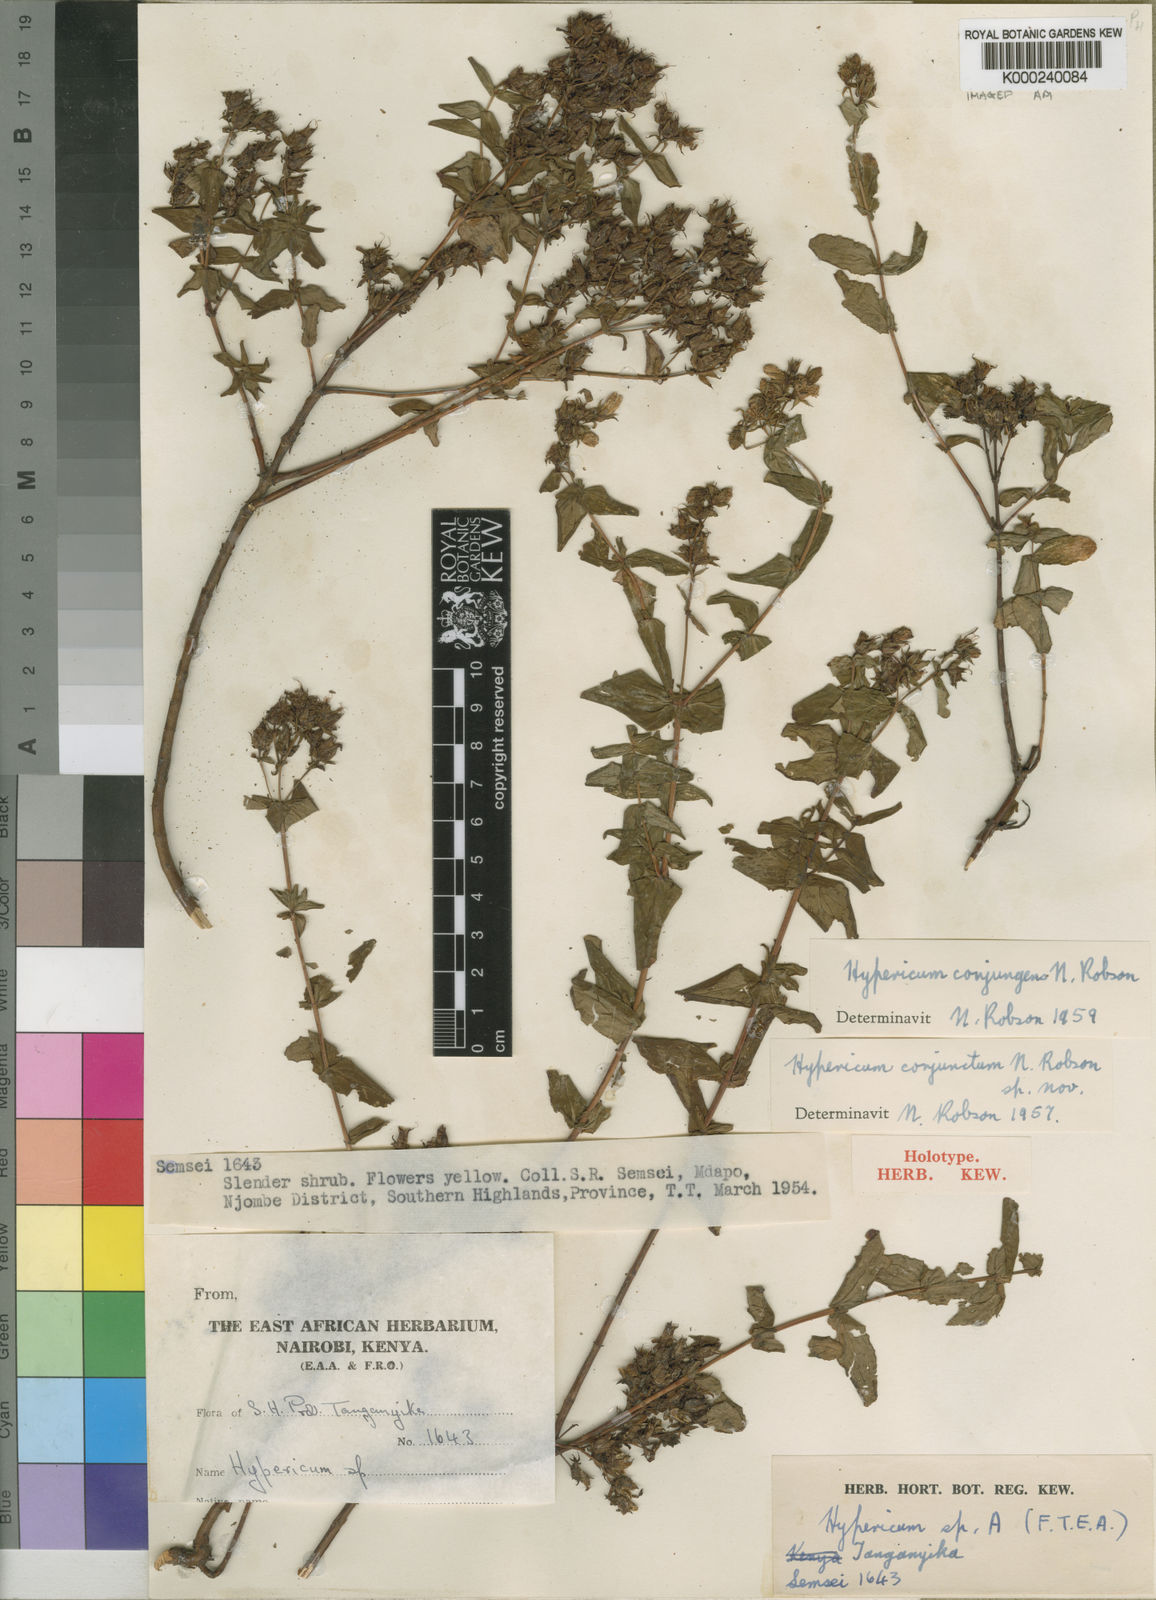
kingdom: Plantae
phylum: Tracheophyta
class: Magnoliopsida
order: Malpighiales
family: Hypericaceae
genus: Hypericum
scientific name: Hypericum conjungens
